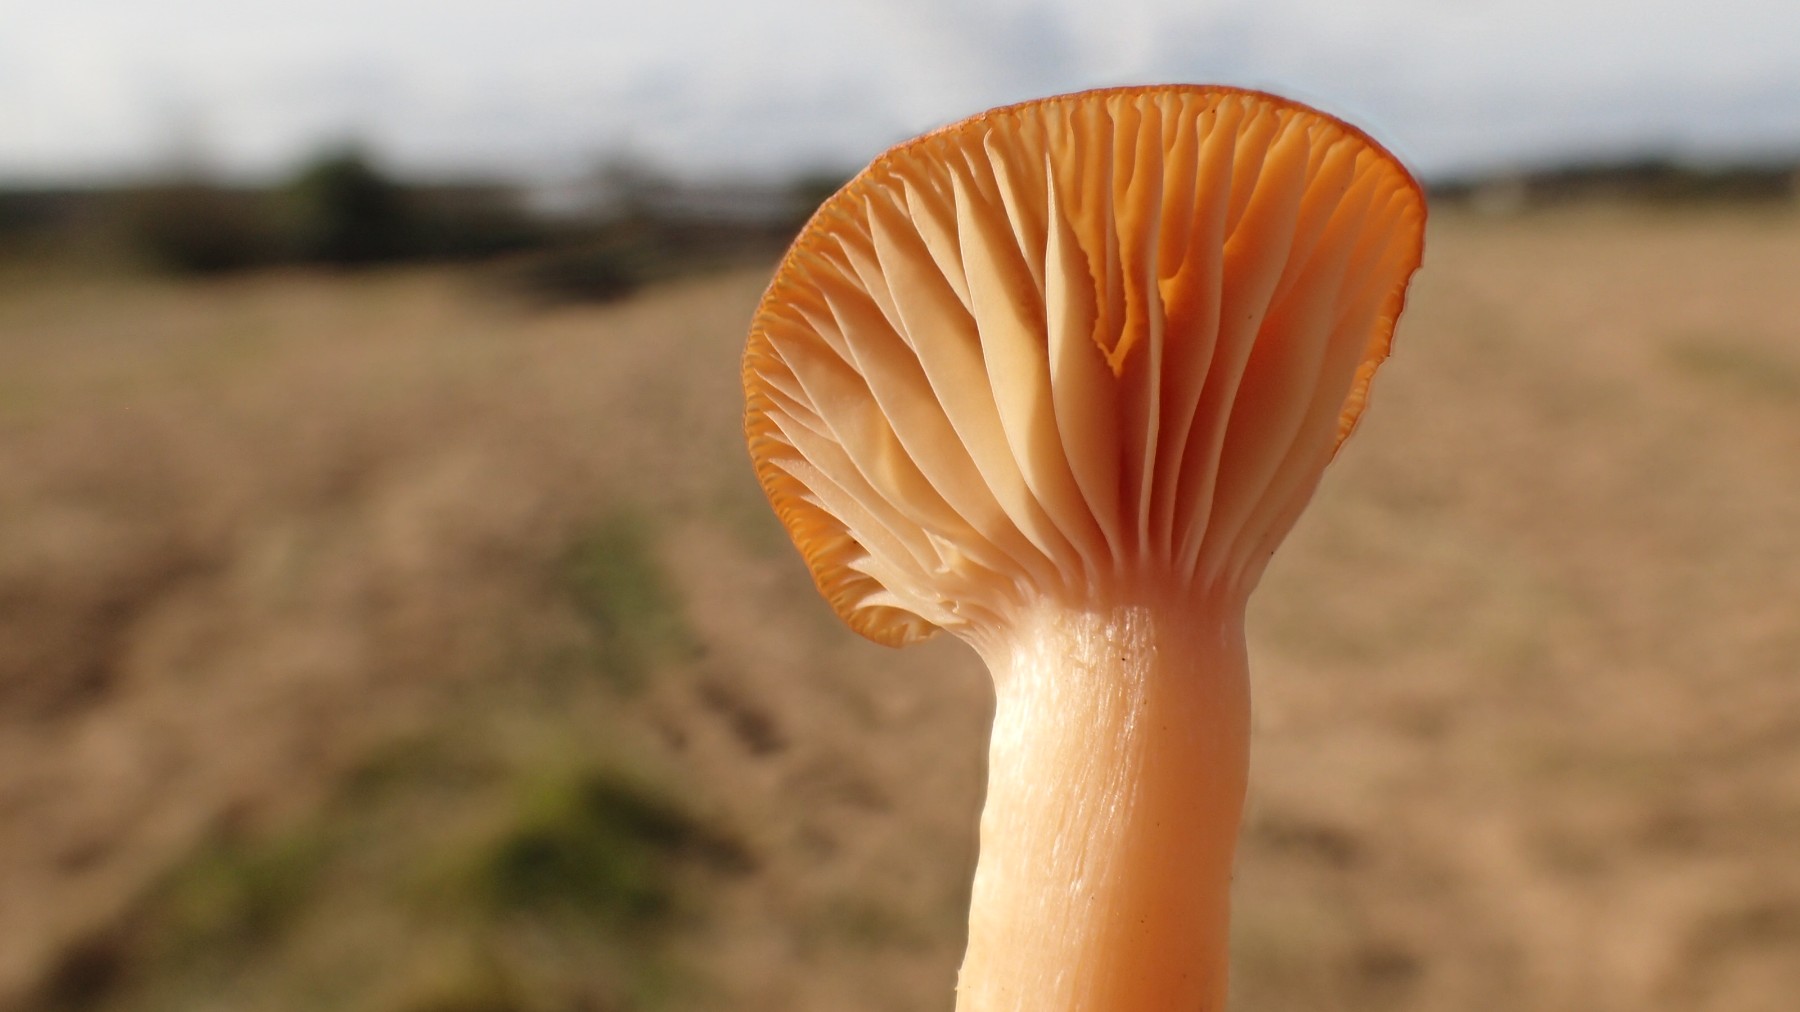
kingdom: Fungi
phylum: Basidiomycota
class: Agaricomycetes
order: Agaricales
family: Hygrophoraceae
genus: Cuphophyllus
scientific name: Cuphophyllus pratensis
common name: eng-vokshat
